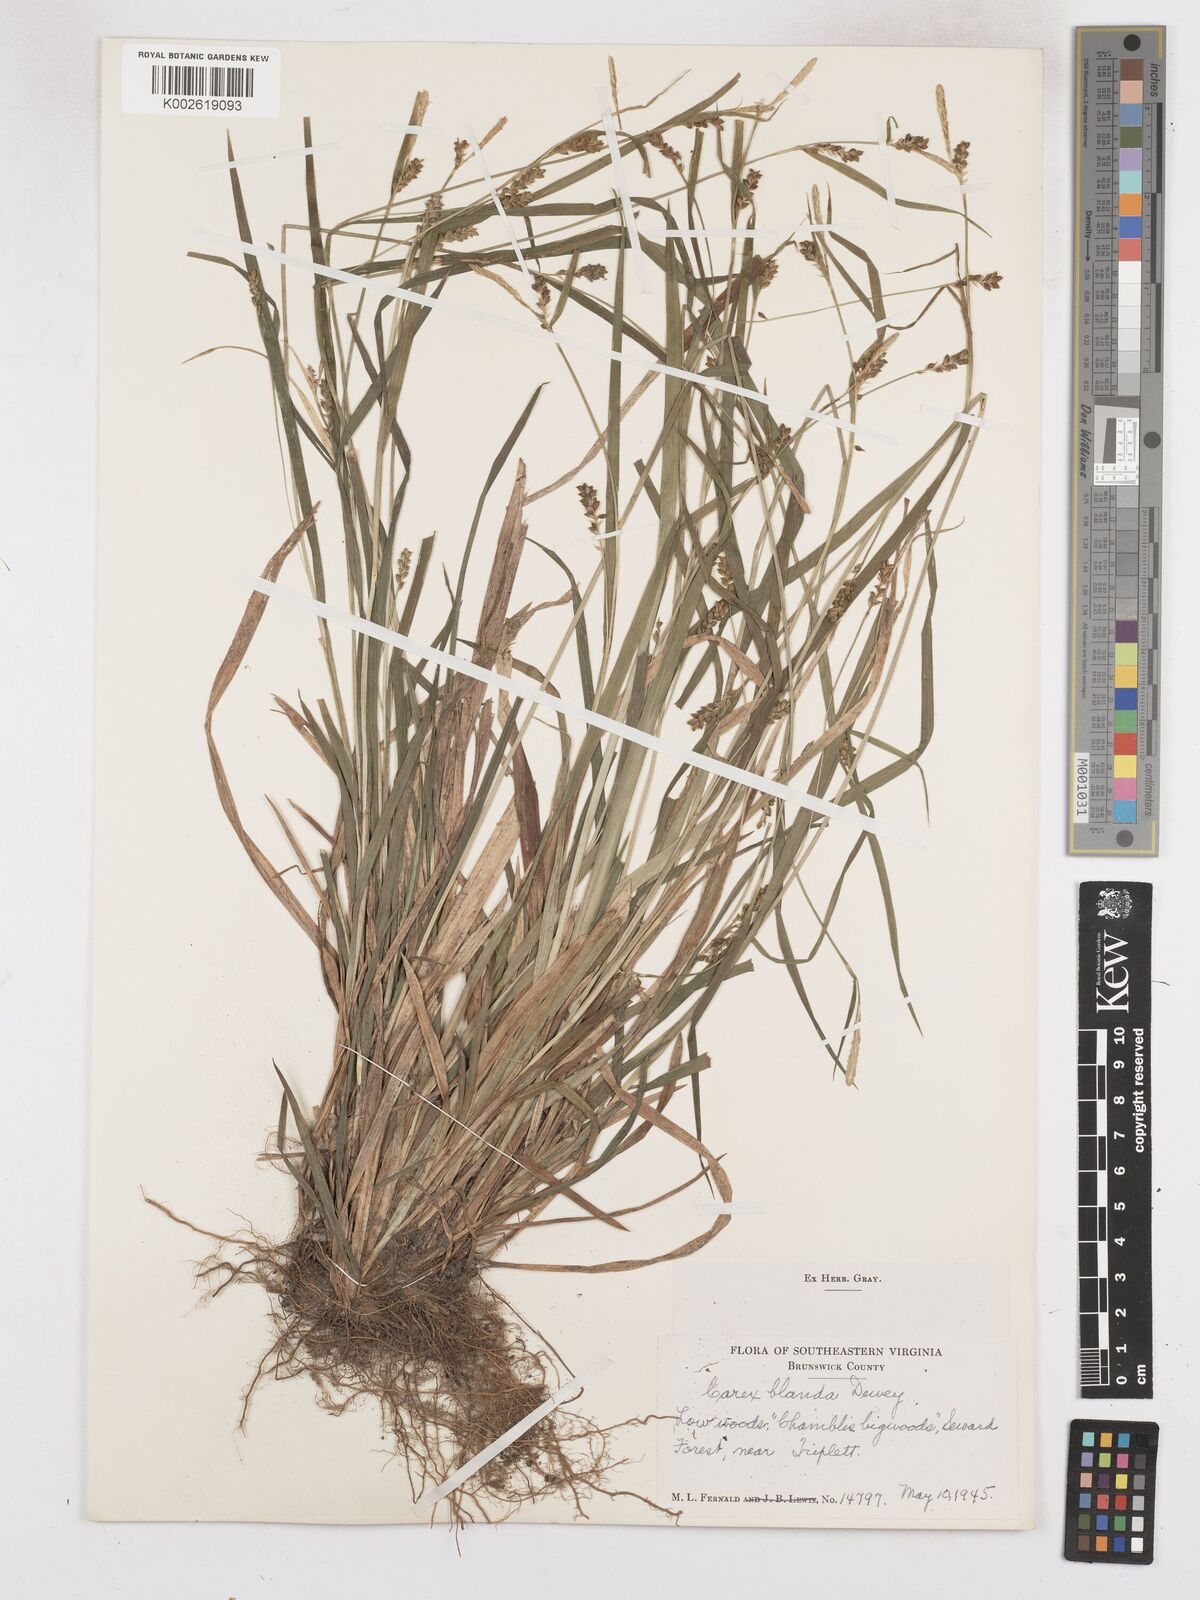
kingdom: Plantae
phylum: Tracheophyta
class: Liliopsida
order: Poales
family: Cyperaceae
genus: Carex
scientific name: Carex blanda
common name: Bland sedge
